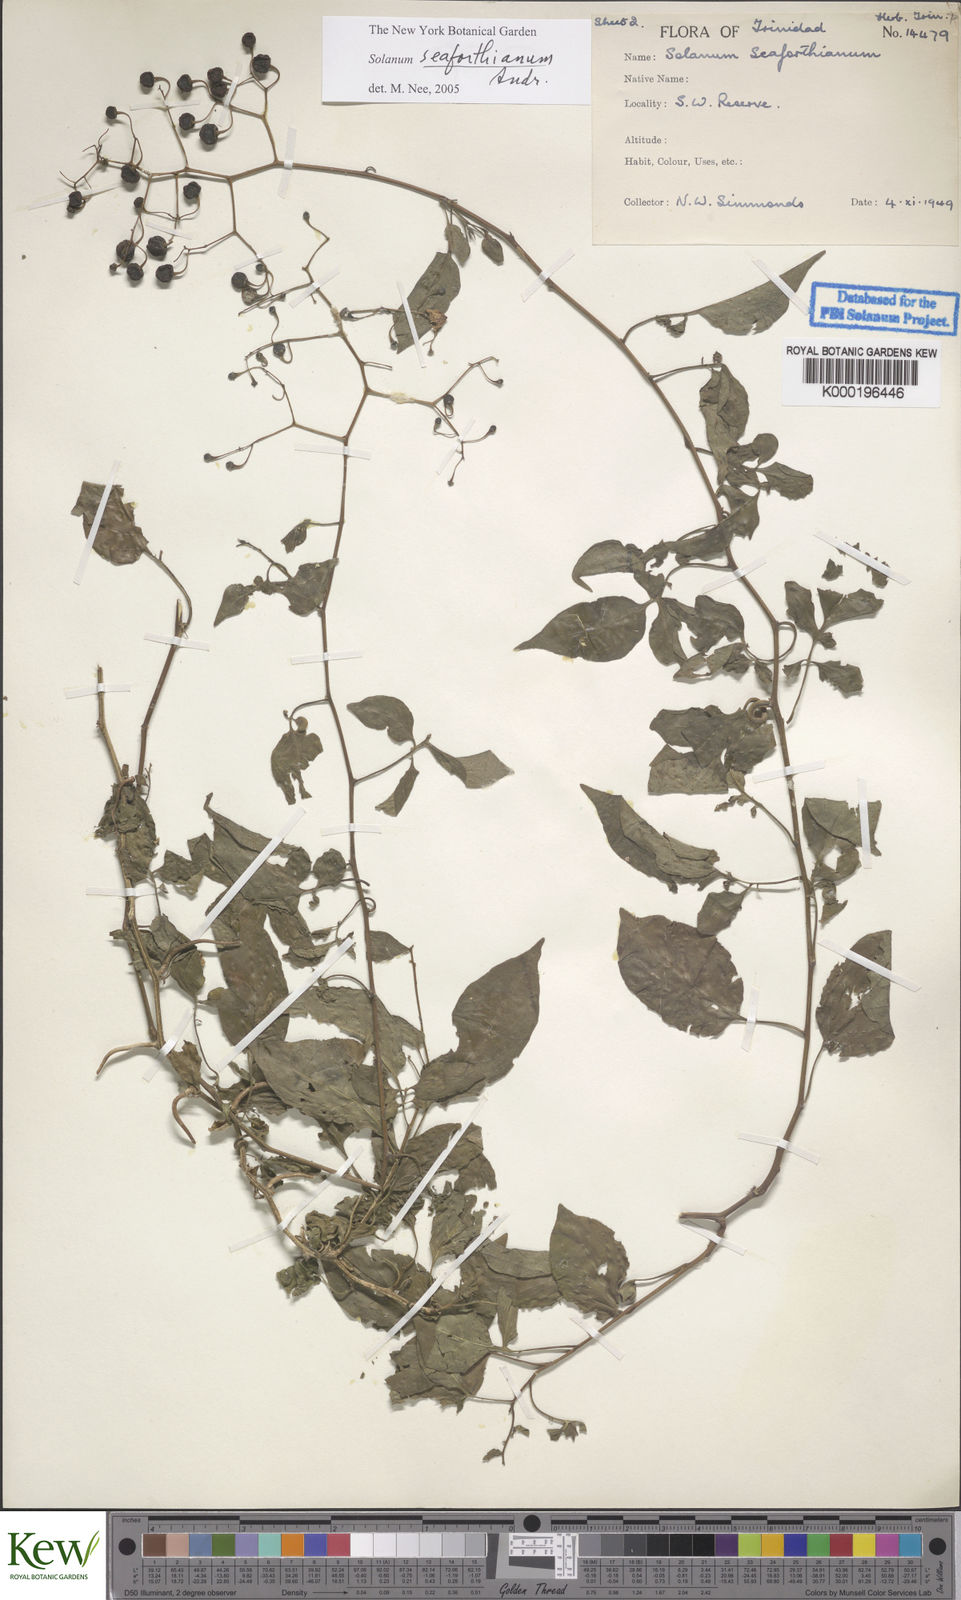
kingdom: Plantae
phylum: Tracheophyta
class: Magnoliopsida
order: Solanales
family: Solanaceae
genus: Solanum
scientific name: Solanum seaforthianum
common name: Brazilian nightshade
